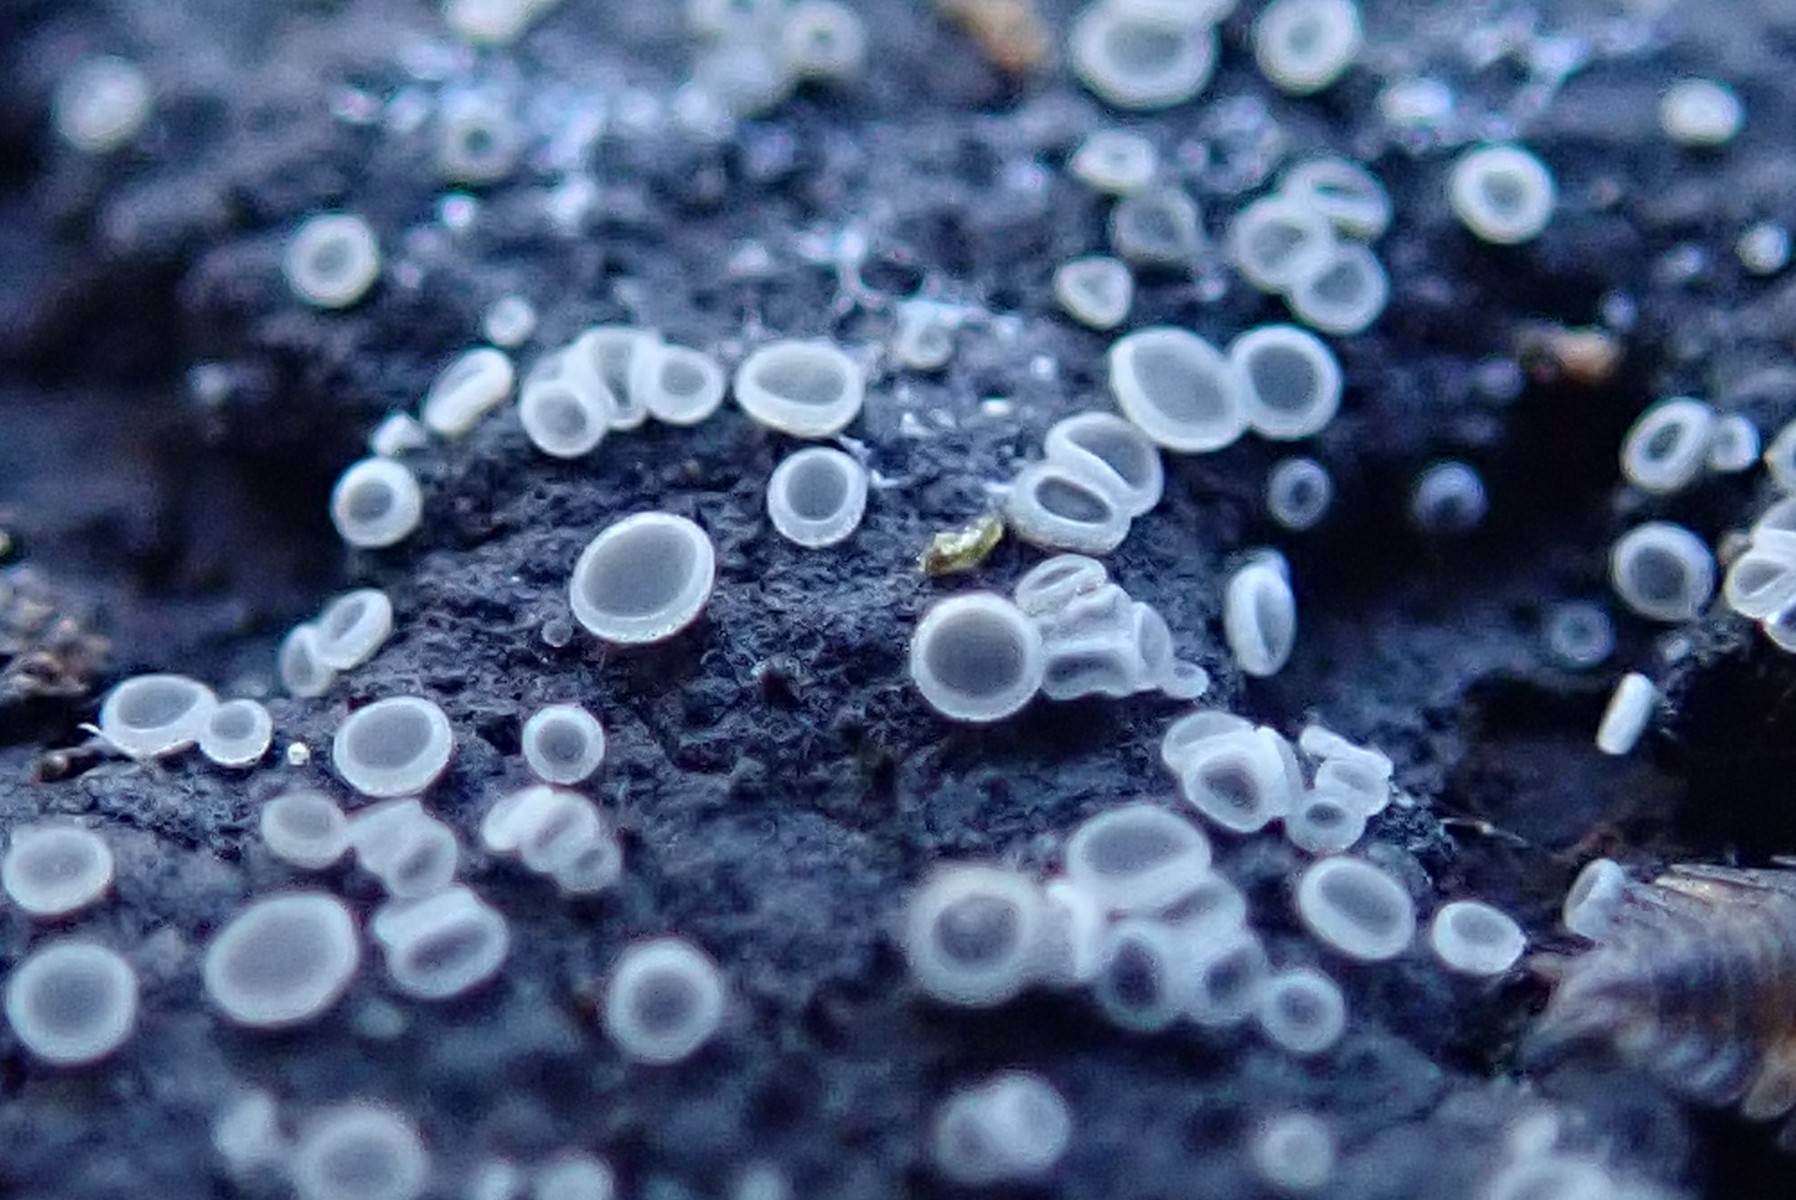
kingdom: Fungi
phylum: Ascomycota
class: Leotiomycetes
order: Helotiales
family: Mollisiaceae
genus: Mollisia
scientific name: Mollisia
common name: gråskive
